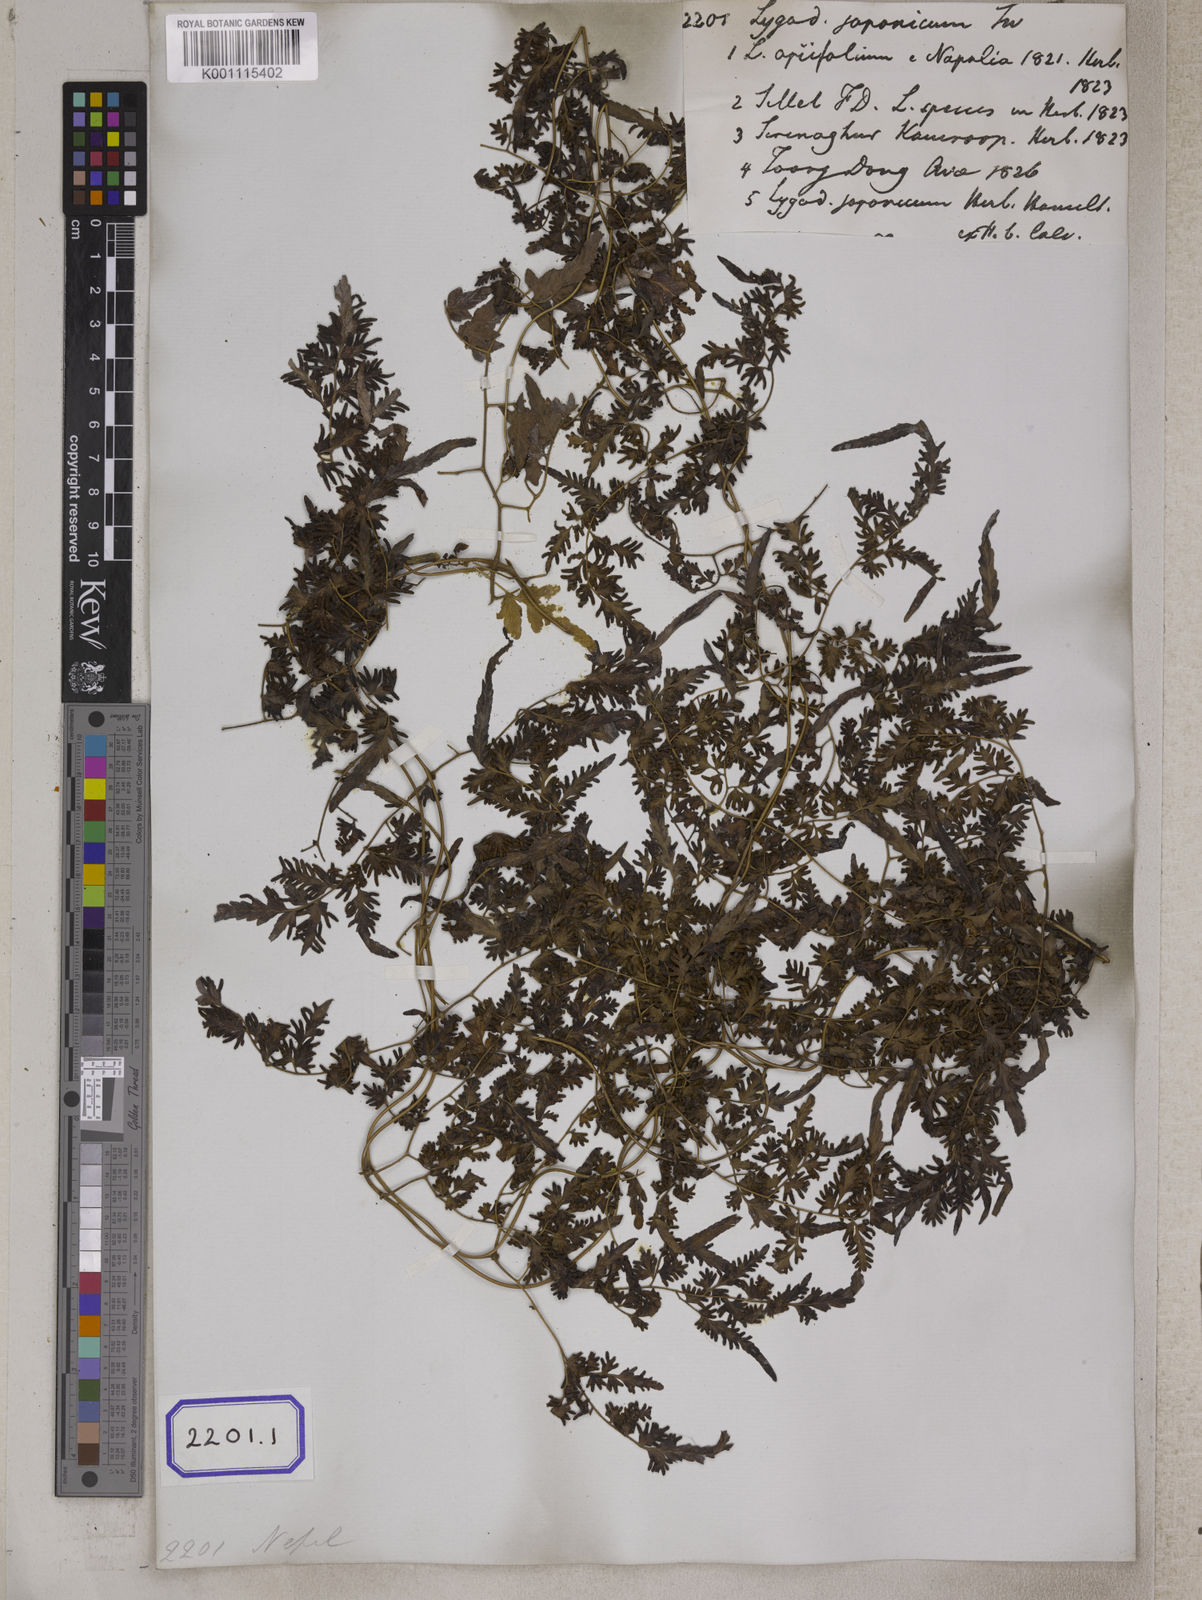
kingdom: Plantae
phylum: Tracheophyta
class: Polypodiopsida
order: Schizaeales
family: Lygodiaceae
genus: Lygodium
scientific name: Lygodium
